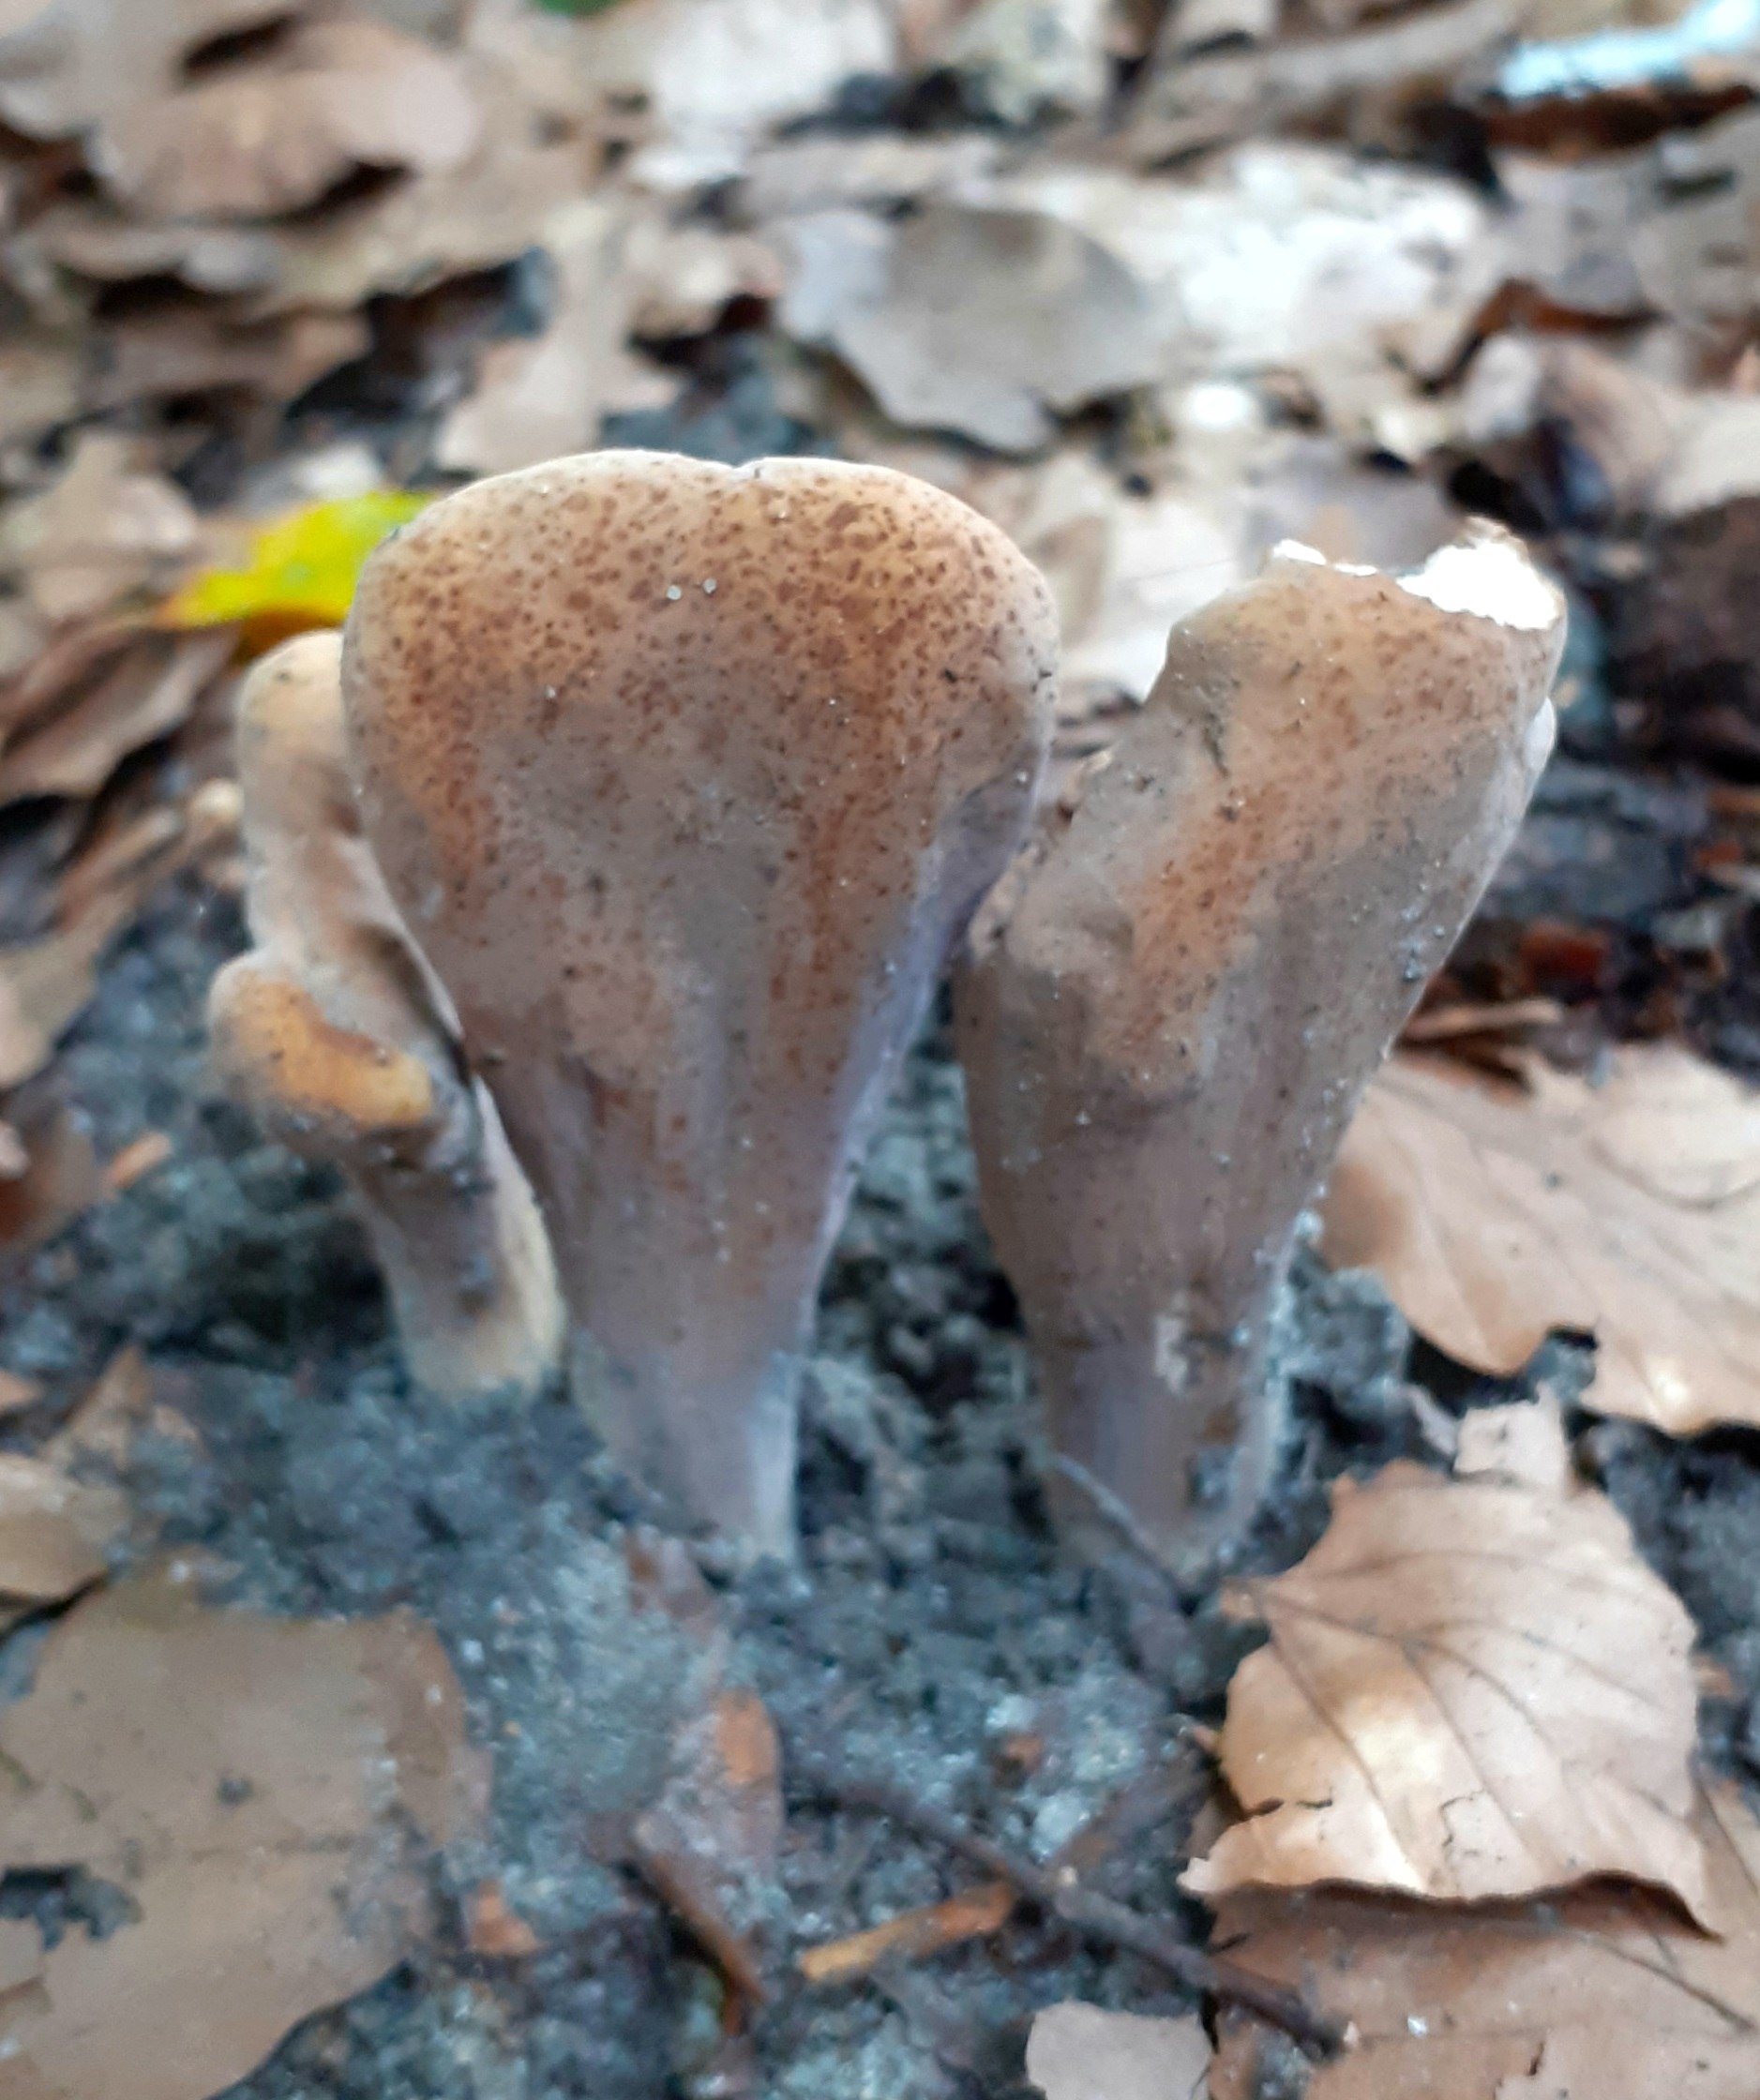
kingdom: Fungi
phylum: Basidiomycota
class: Agaricomycetes
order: Gomphales
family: Clavariadelphaceae
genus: Clavariadelphus
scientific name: Clavariadelphus pistillaris
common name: herkules-kæmpekølle
